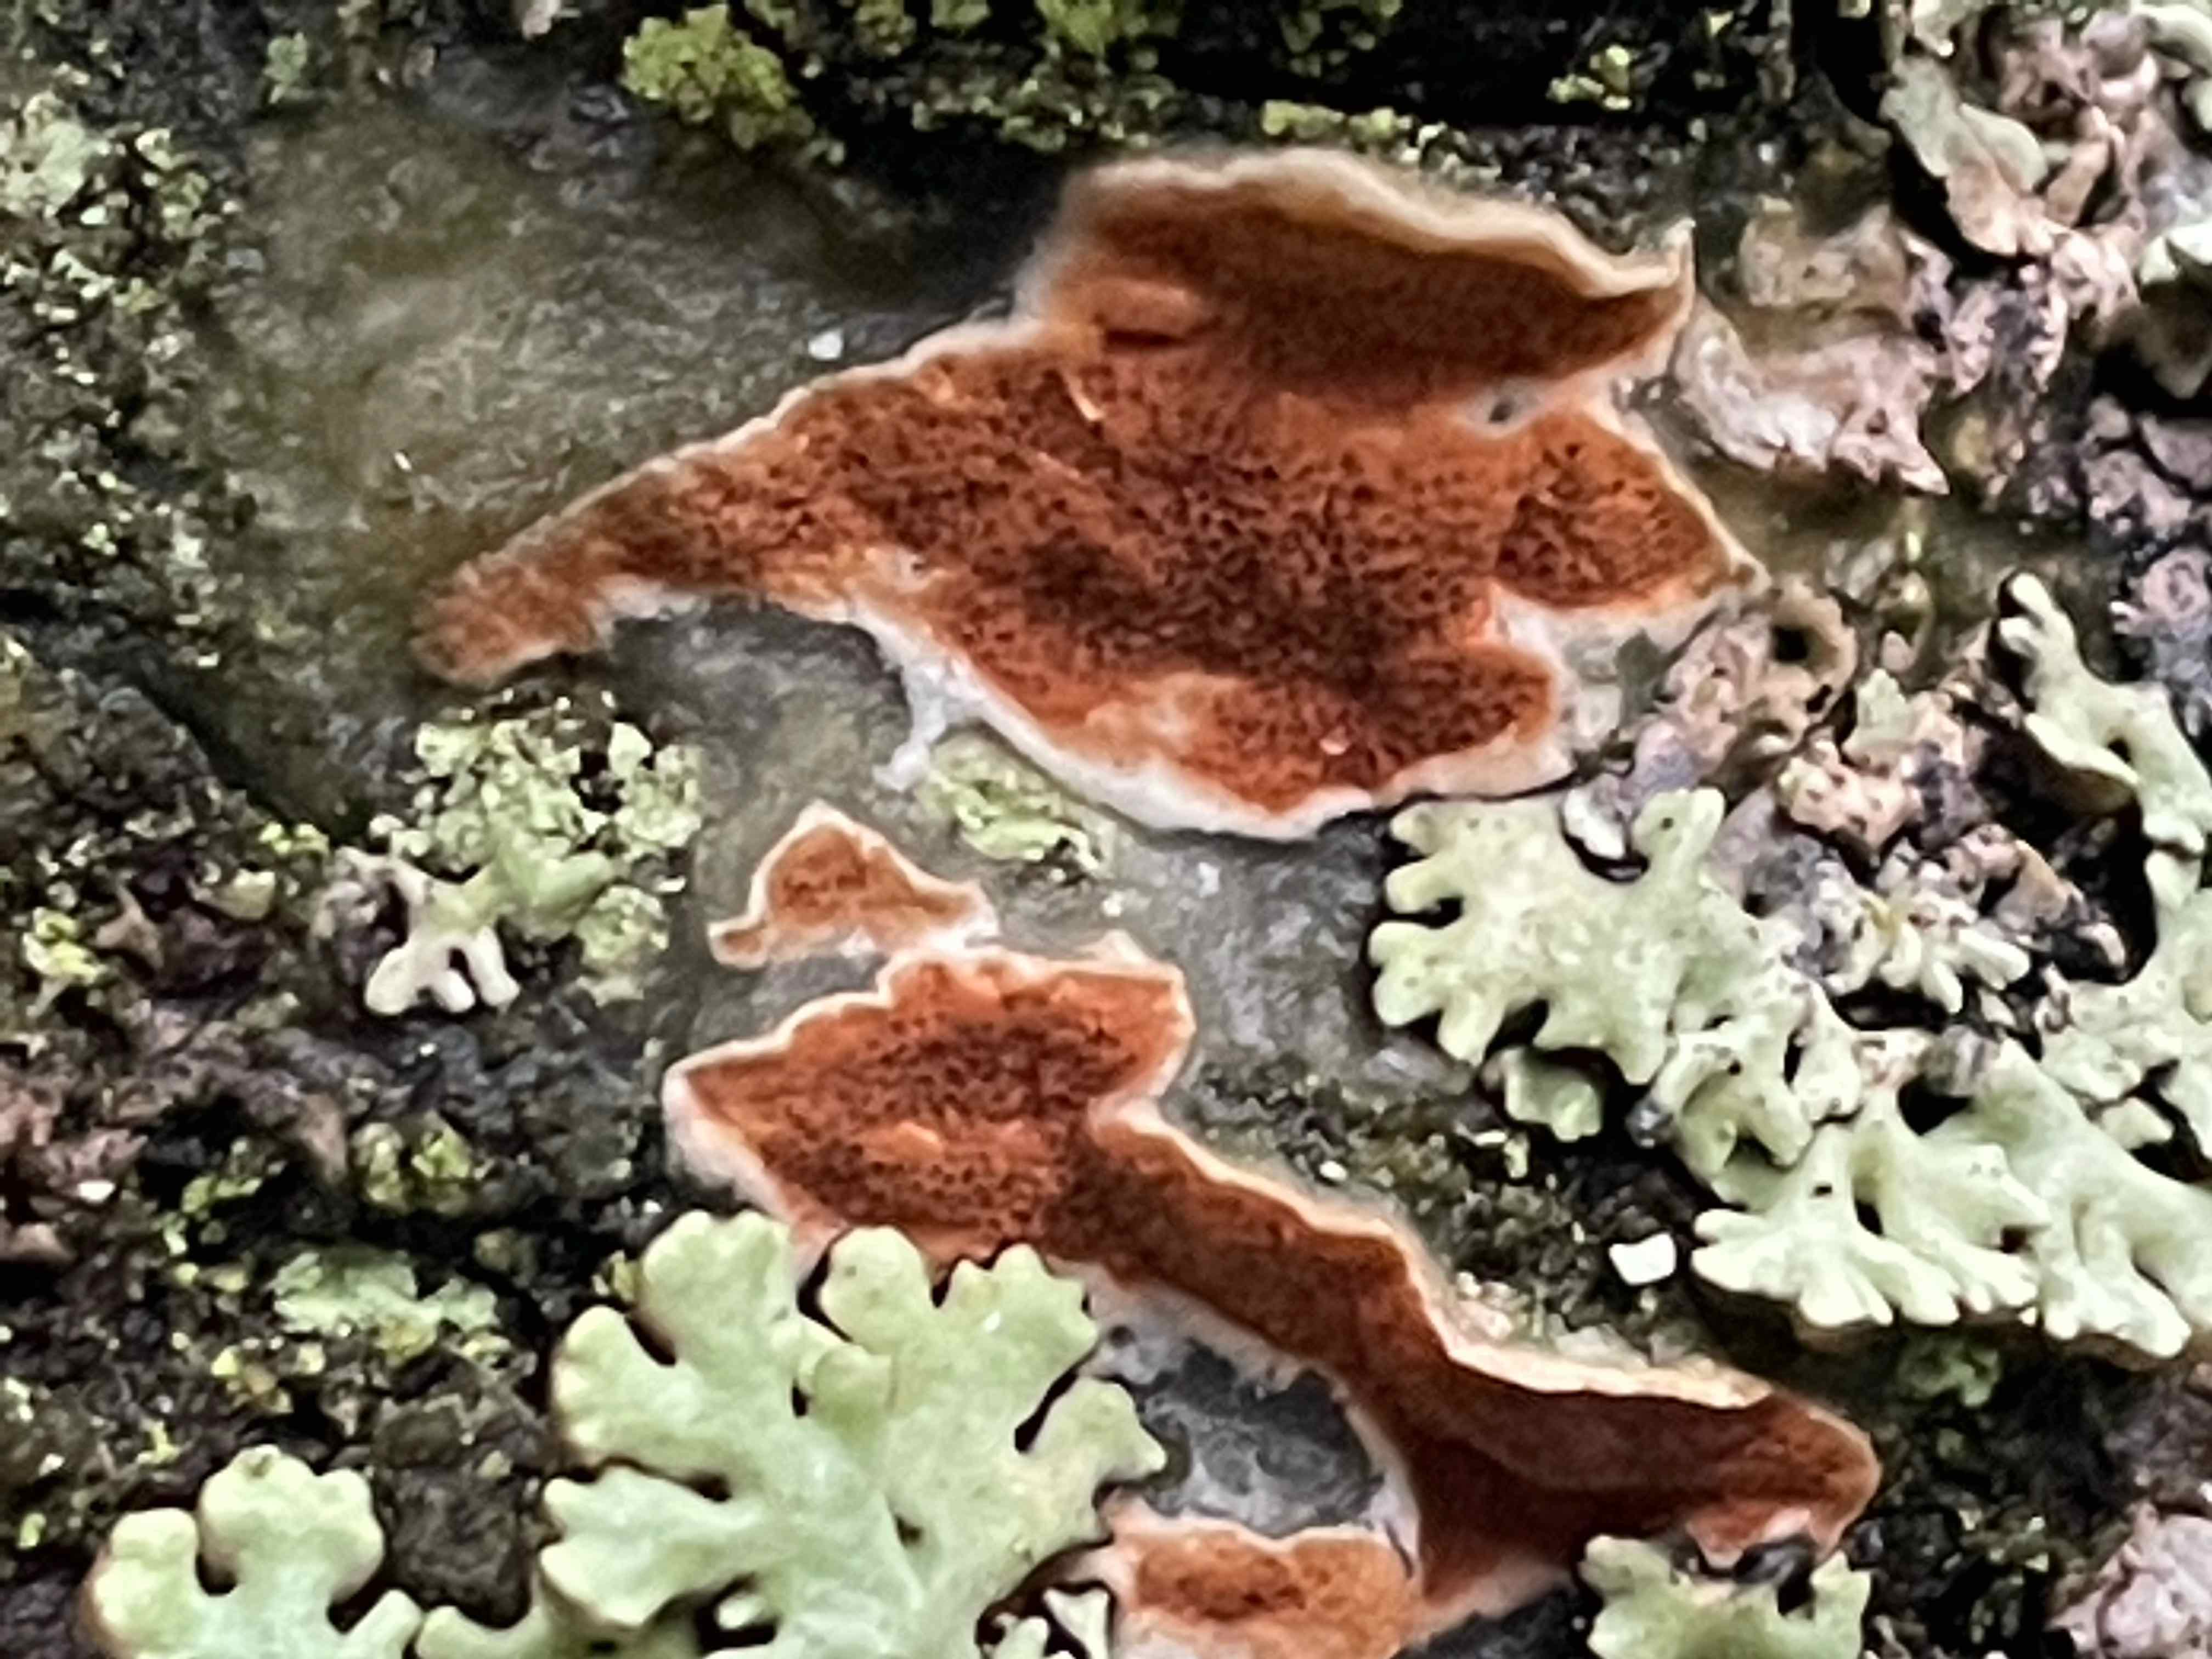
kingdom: Fungi
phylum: Basidiomycota
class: Agaricomycetes
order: Polyporales
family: Irpicaceae
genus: Meruliopsis
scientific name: Meruliopsis taxicola
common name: purpurbrun foldporesvamp
